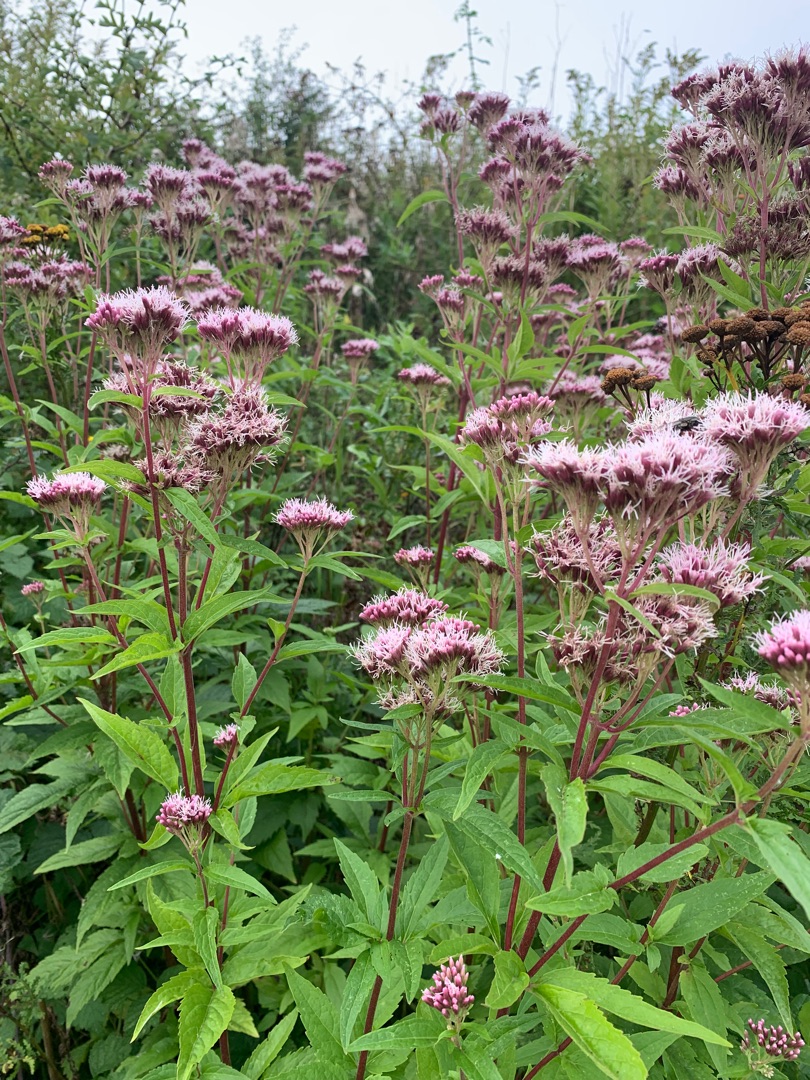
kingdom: Plantae
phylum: Tracheophyta
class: Magnoliopsida
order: Asterales
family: Asteraceae
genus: Eupatorium
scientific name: Eupatorium cannabinum
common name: Hjortetrøst
